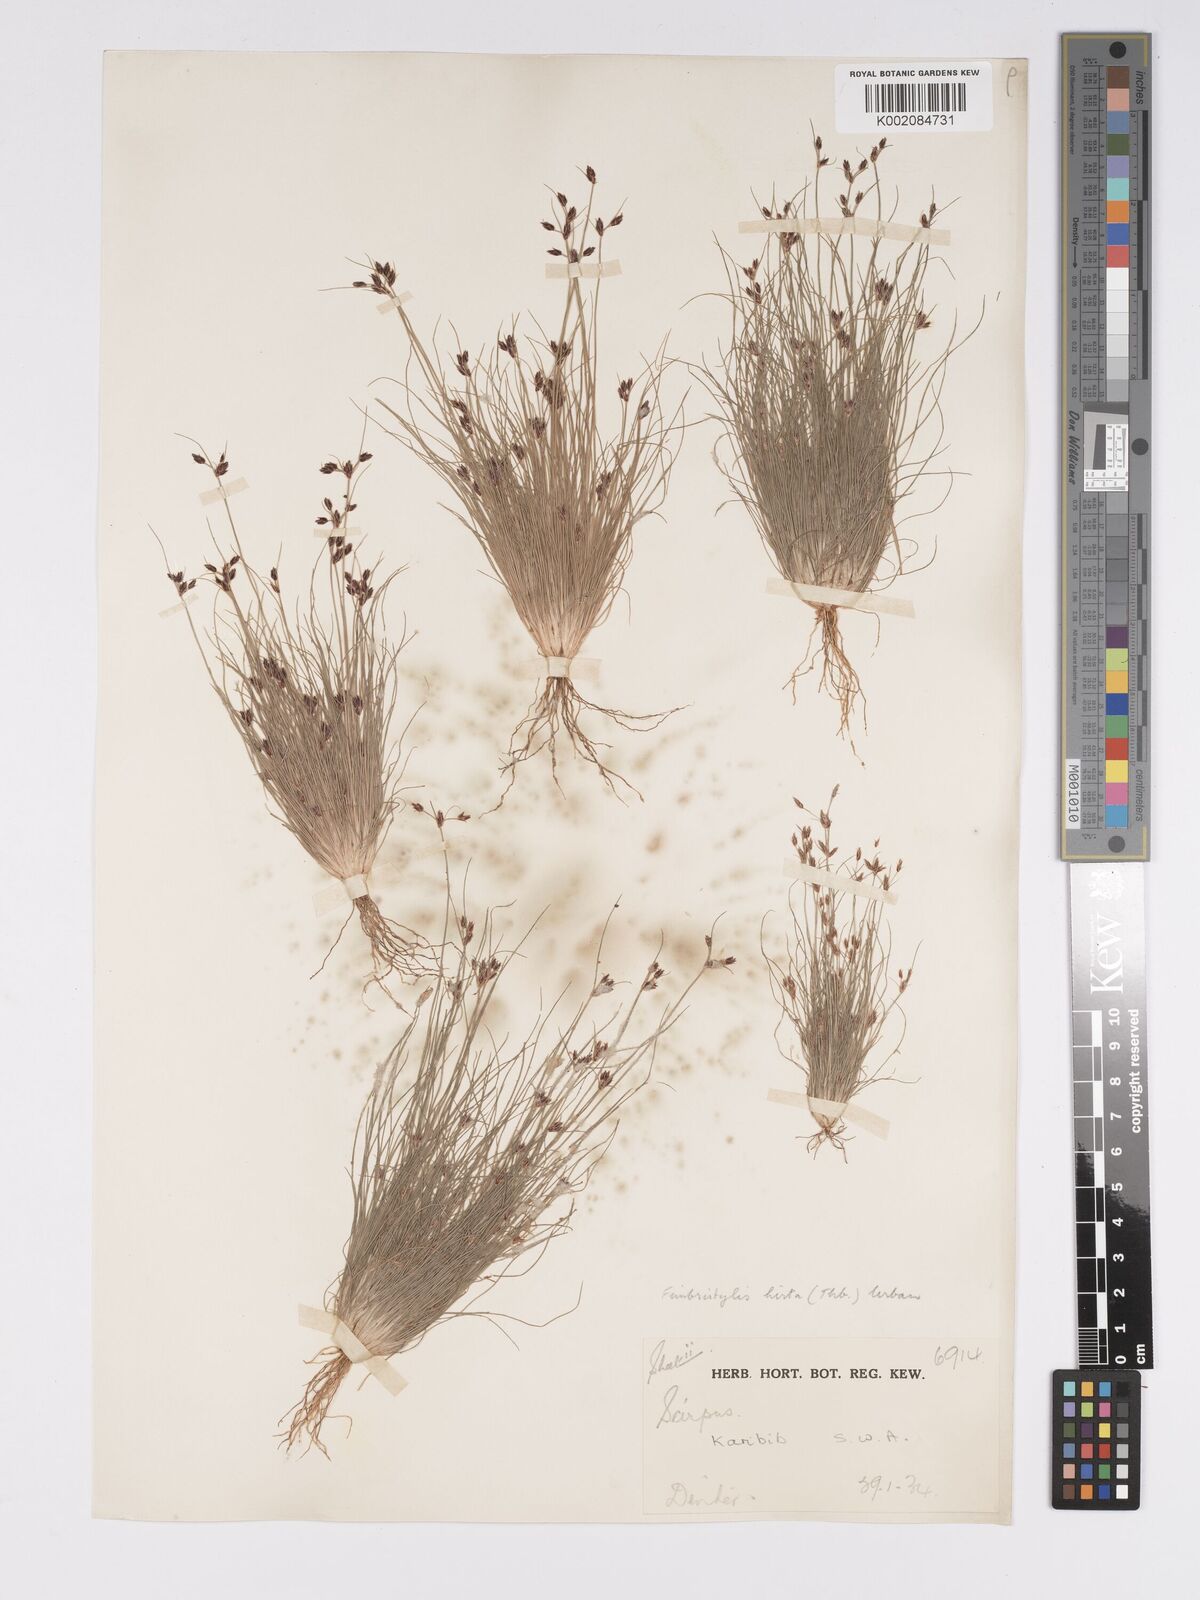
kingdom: Plantae
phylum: Tracheophyta
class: Liliopsida
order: Poales
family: Cyperaceae
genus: Bulbostylis
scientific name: Bulbostylis hispidula
